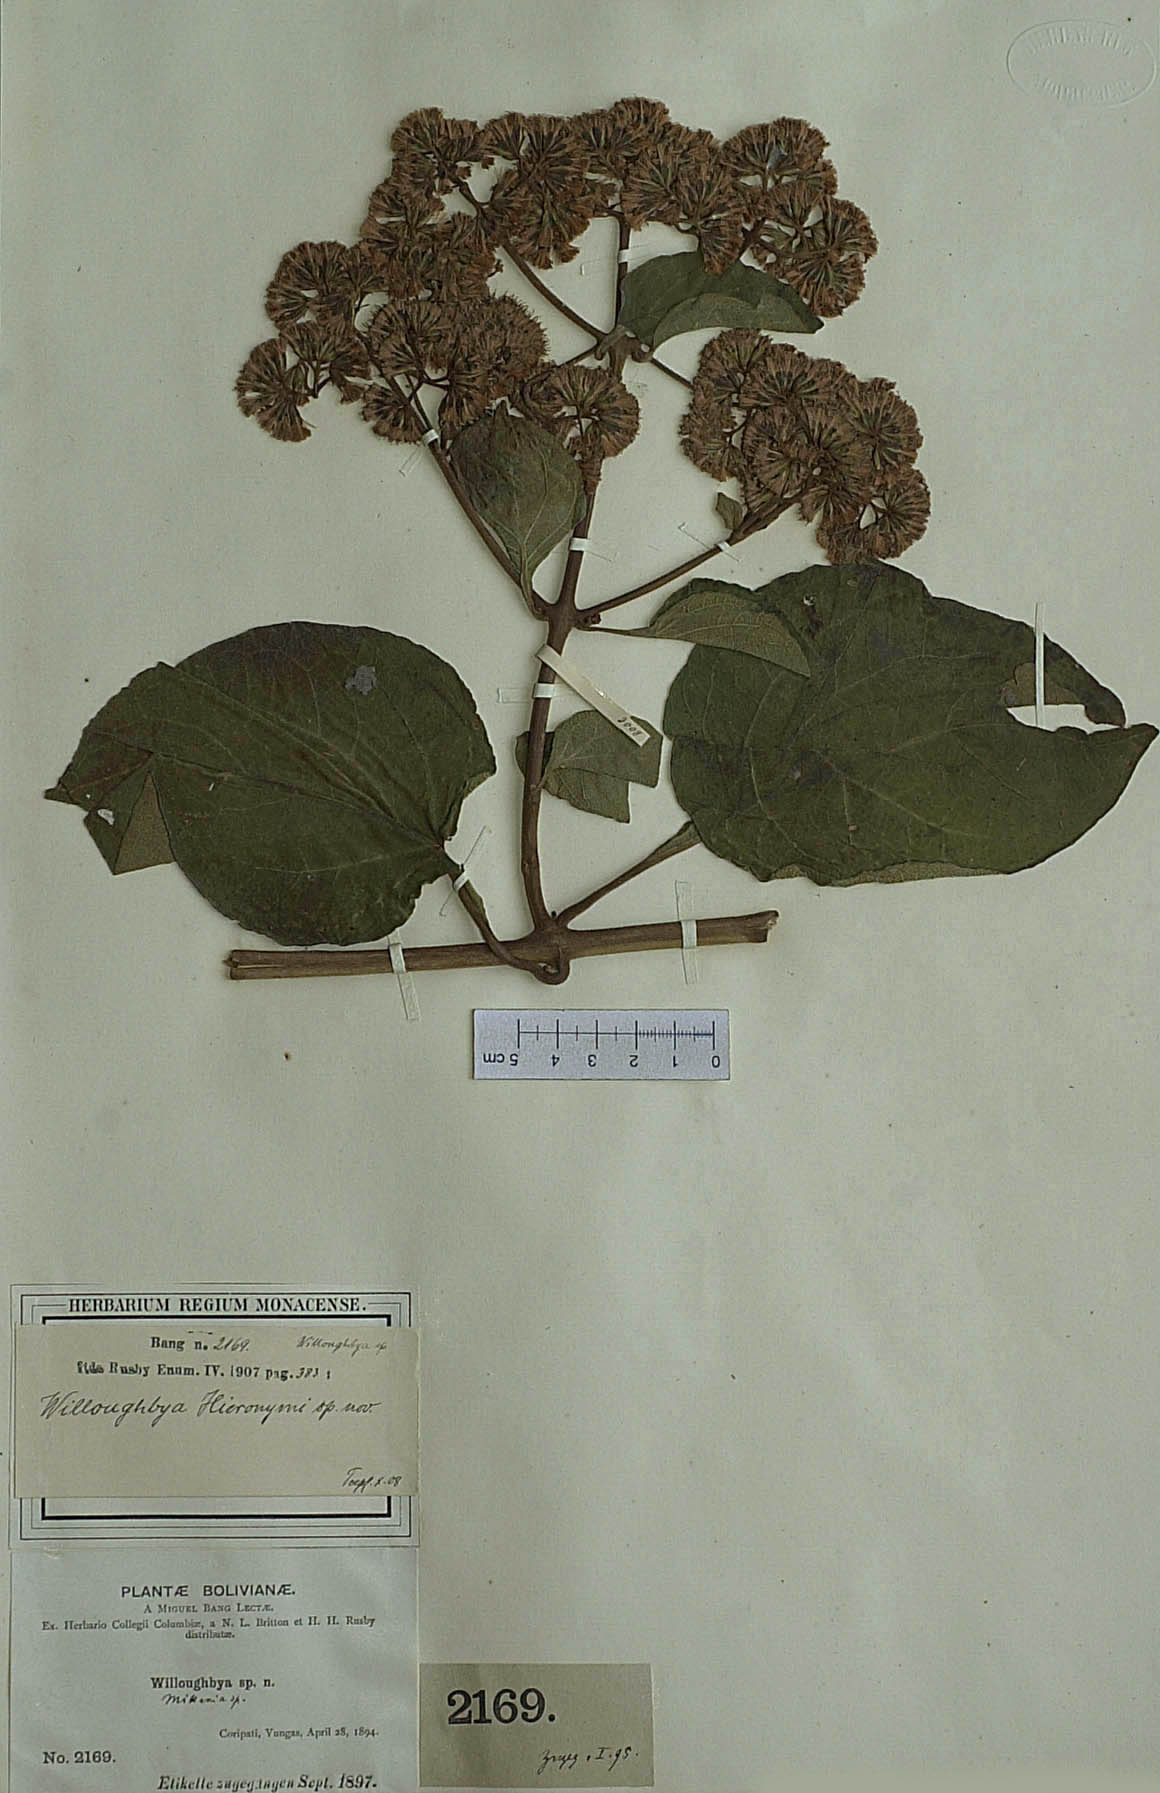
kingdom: Plantae
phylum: Tracheophyta
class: Magnoliopsida
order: Asterales
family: Asteraceae
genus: Mikania
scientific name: Mikania speciosa
